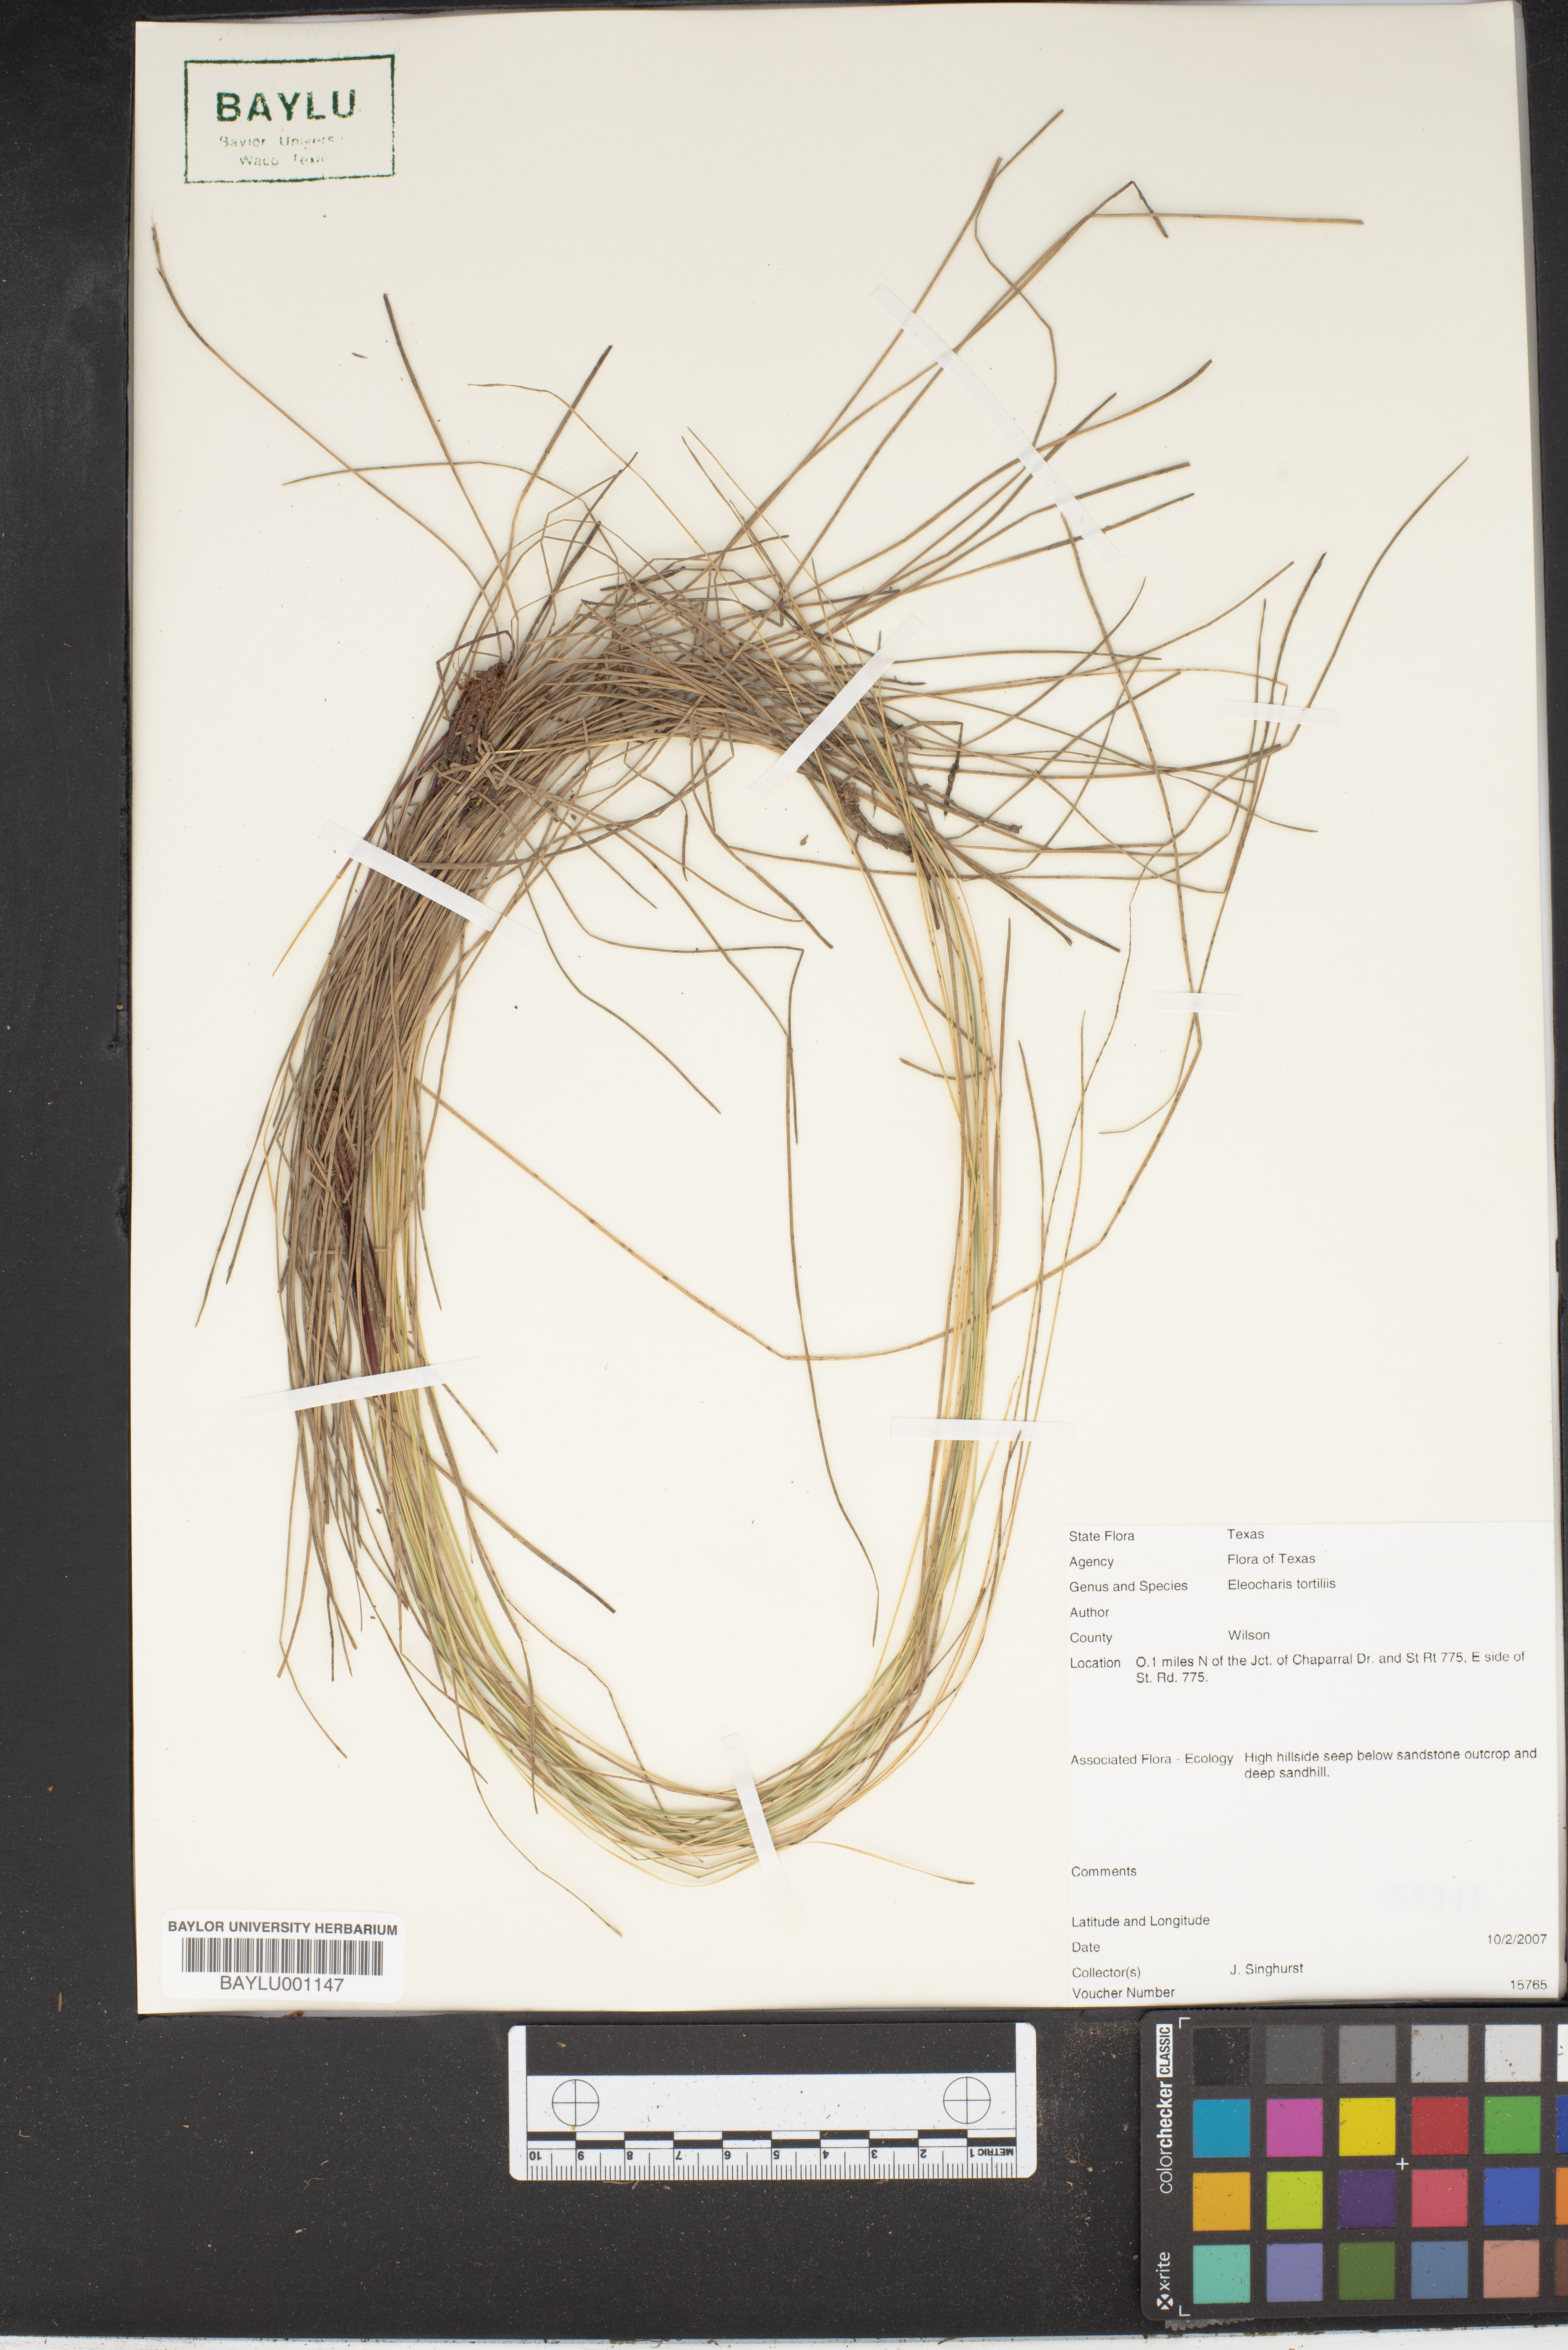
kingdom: Plantae
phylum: Tracheophyta
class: Liliopsida
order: Poales
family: Cyperaceae
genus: Eleocharis
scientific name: Eleocharis tortilis
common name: Twisted spike sedge
